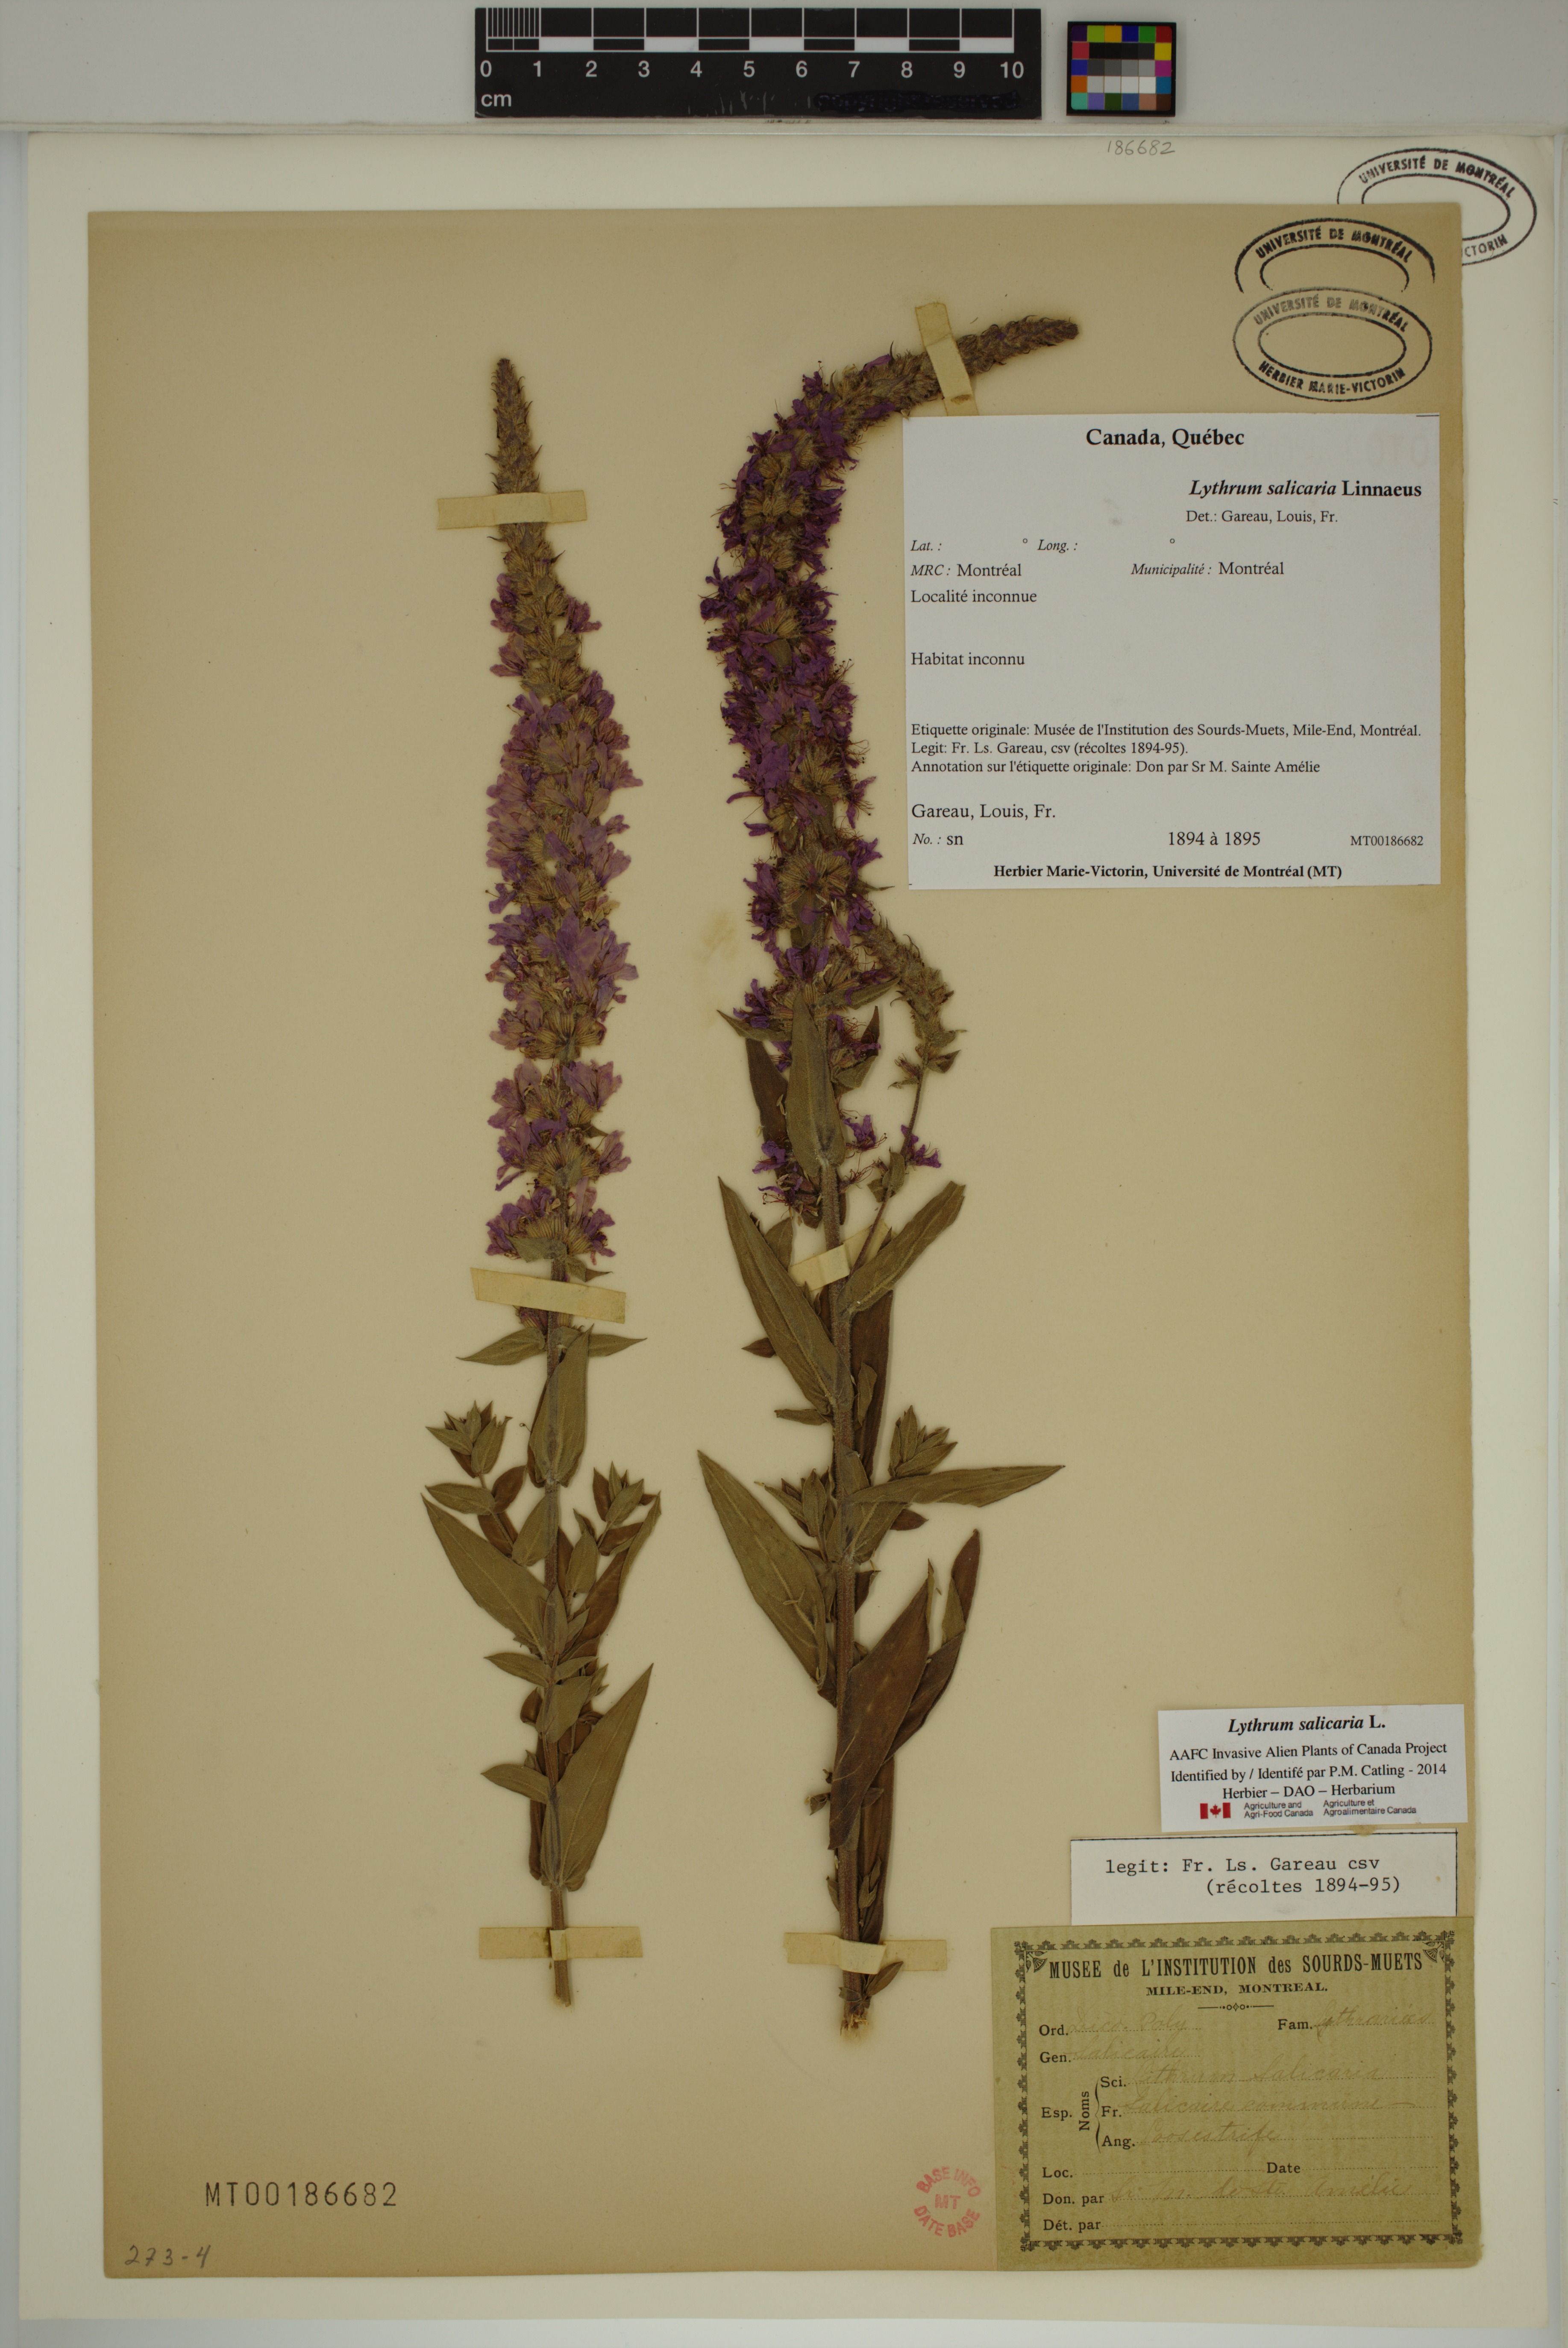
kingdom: Plantae
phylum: Tracheophyta
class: Magnoliopsida
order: Myrtales
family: Lythraceae
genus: Lythrum
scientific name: Lythrum salicaria
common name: Purple loosestrife
